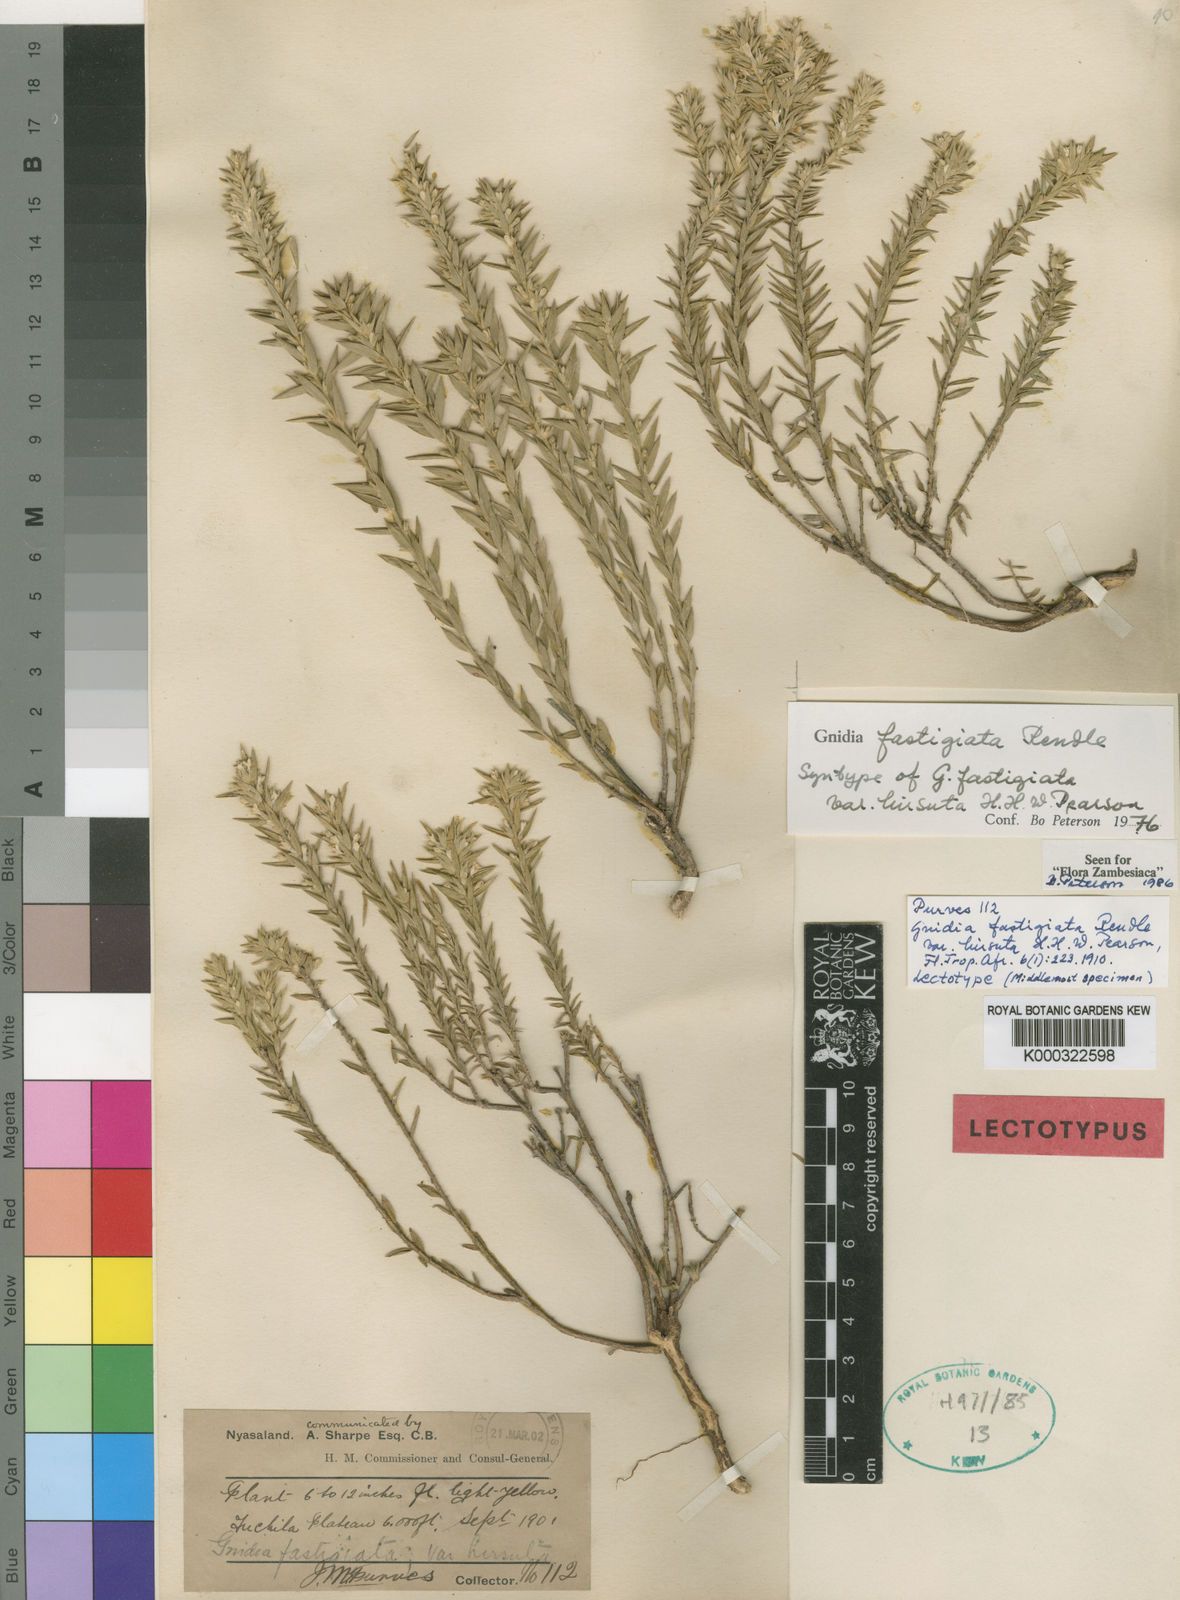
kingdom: Plantae
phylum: Tracheophyta
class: Magnoliopsida
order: Malvales
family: Thymelaeaceae
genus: Gnidia
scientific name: Gnidia fastigiata
